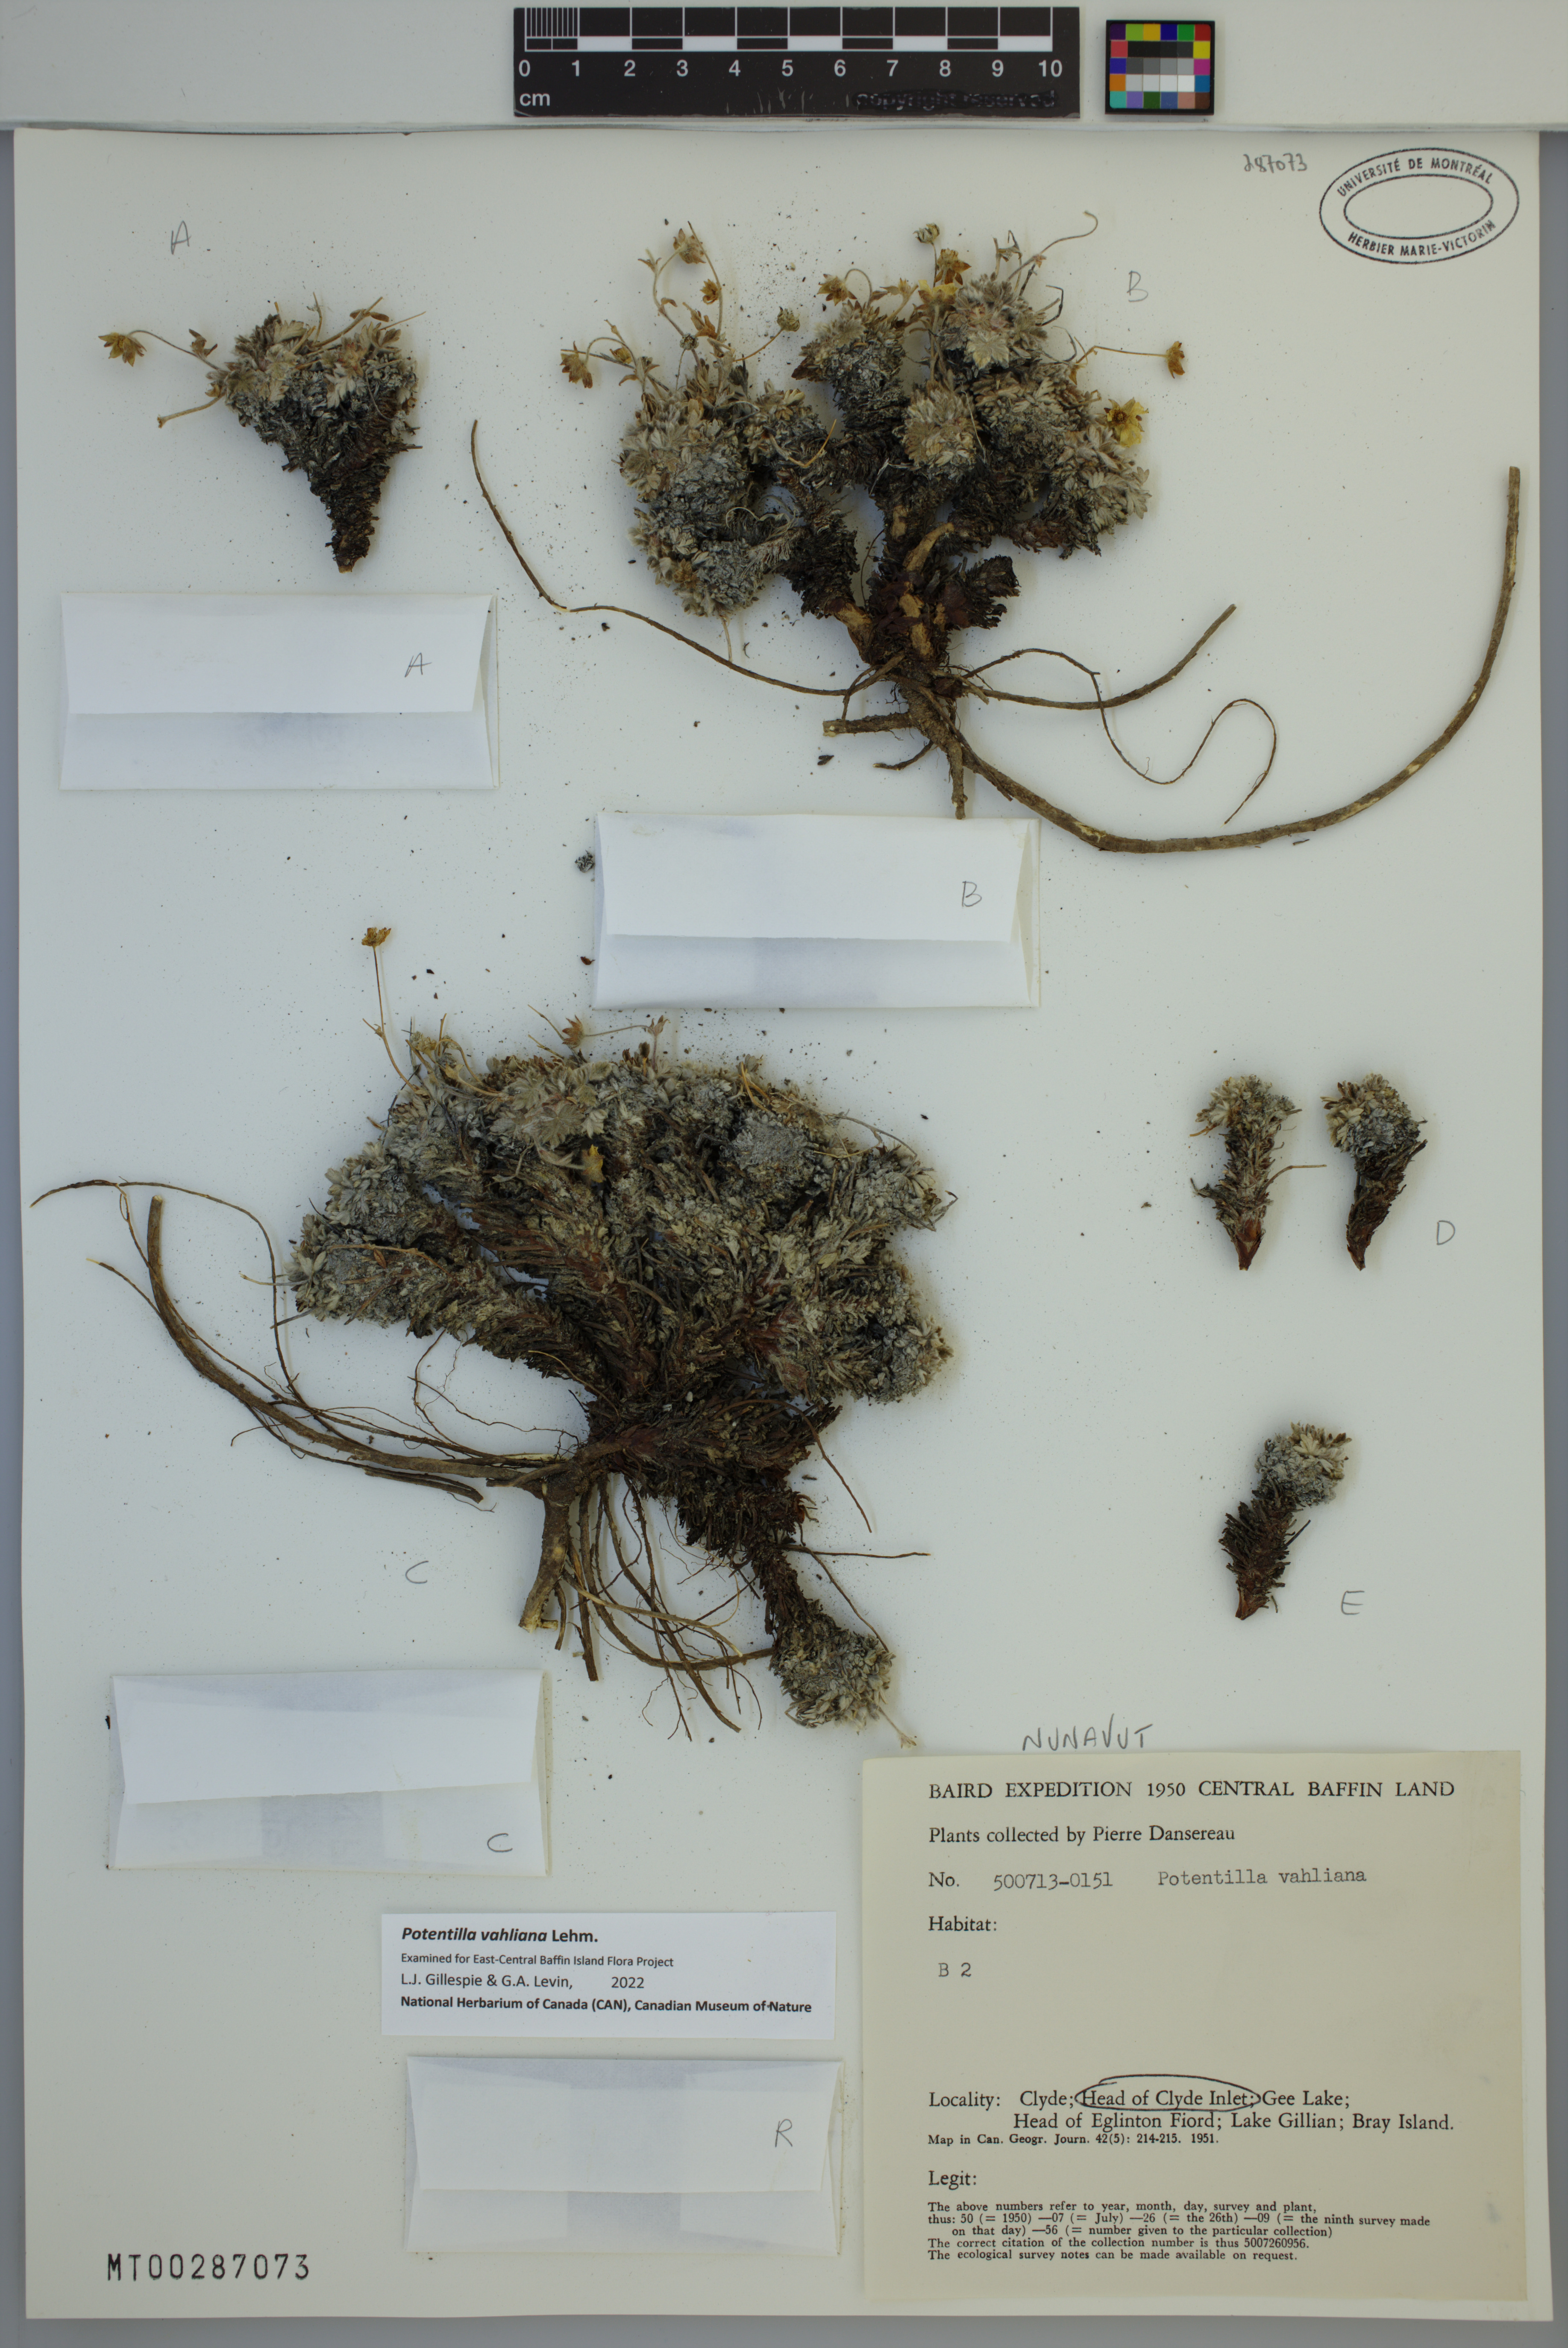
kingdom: Plantae
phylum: Tracheophyta
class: Magnoliopsida
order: Rosales
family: Rosaceae
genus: Potentilla
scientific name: Potentilla vahliana
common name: Vahl's cinquefoil
